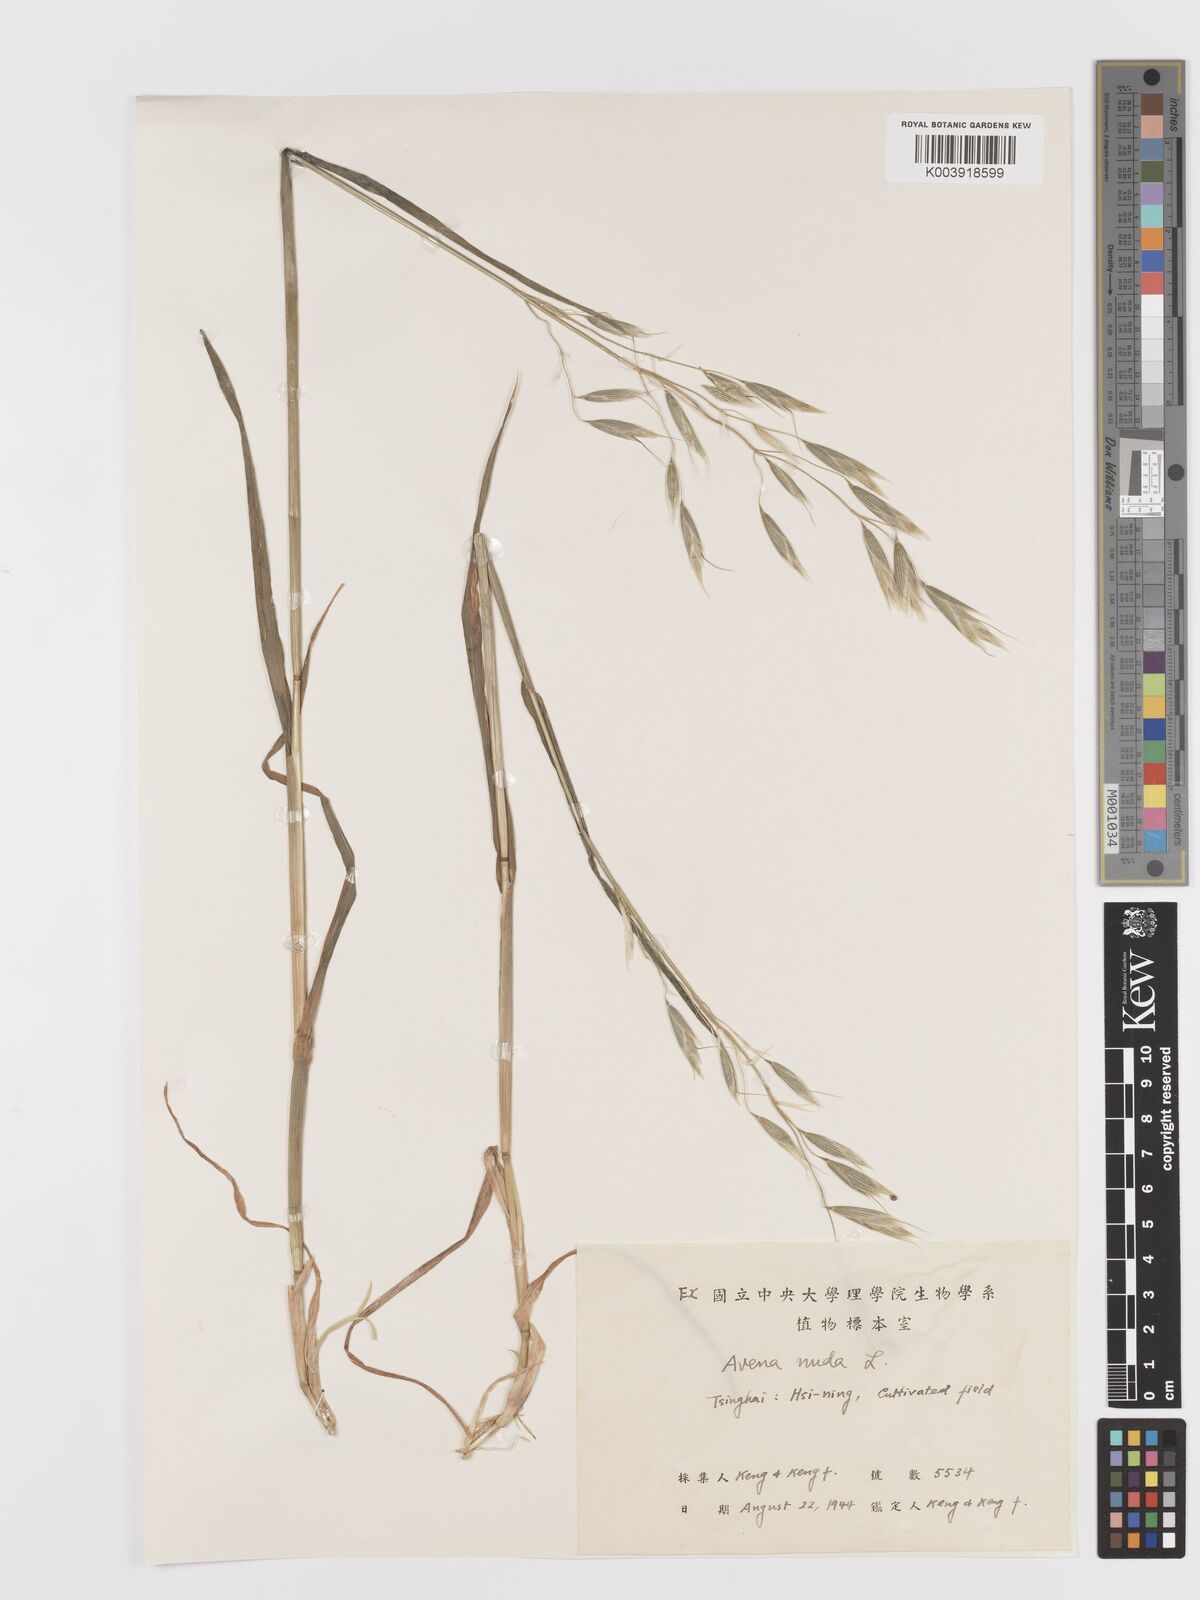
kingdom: Plantae
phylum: Tracheophyta
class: Liliopsida
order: Poales
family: Poaceae
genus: Avena
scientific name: Avena chinensis
